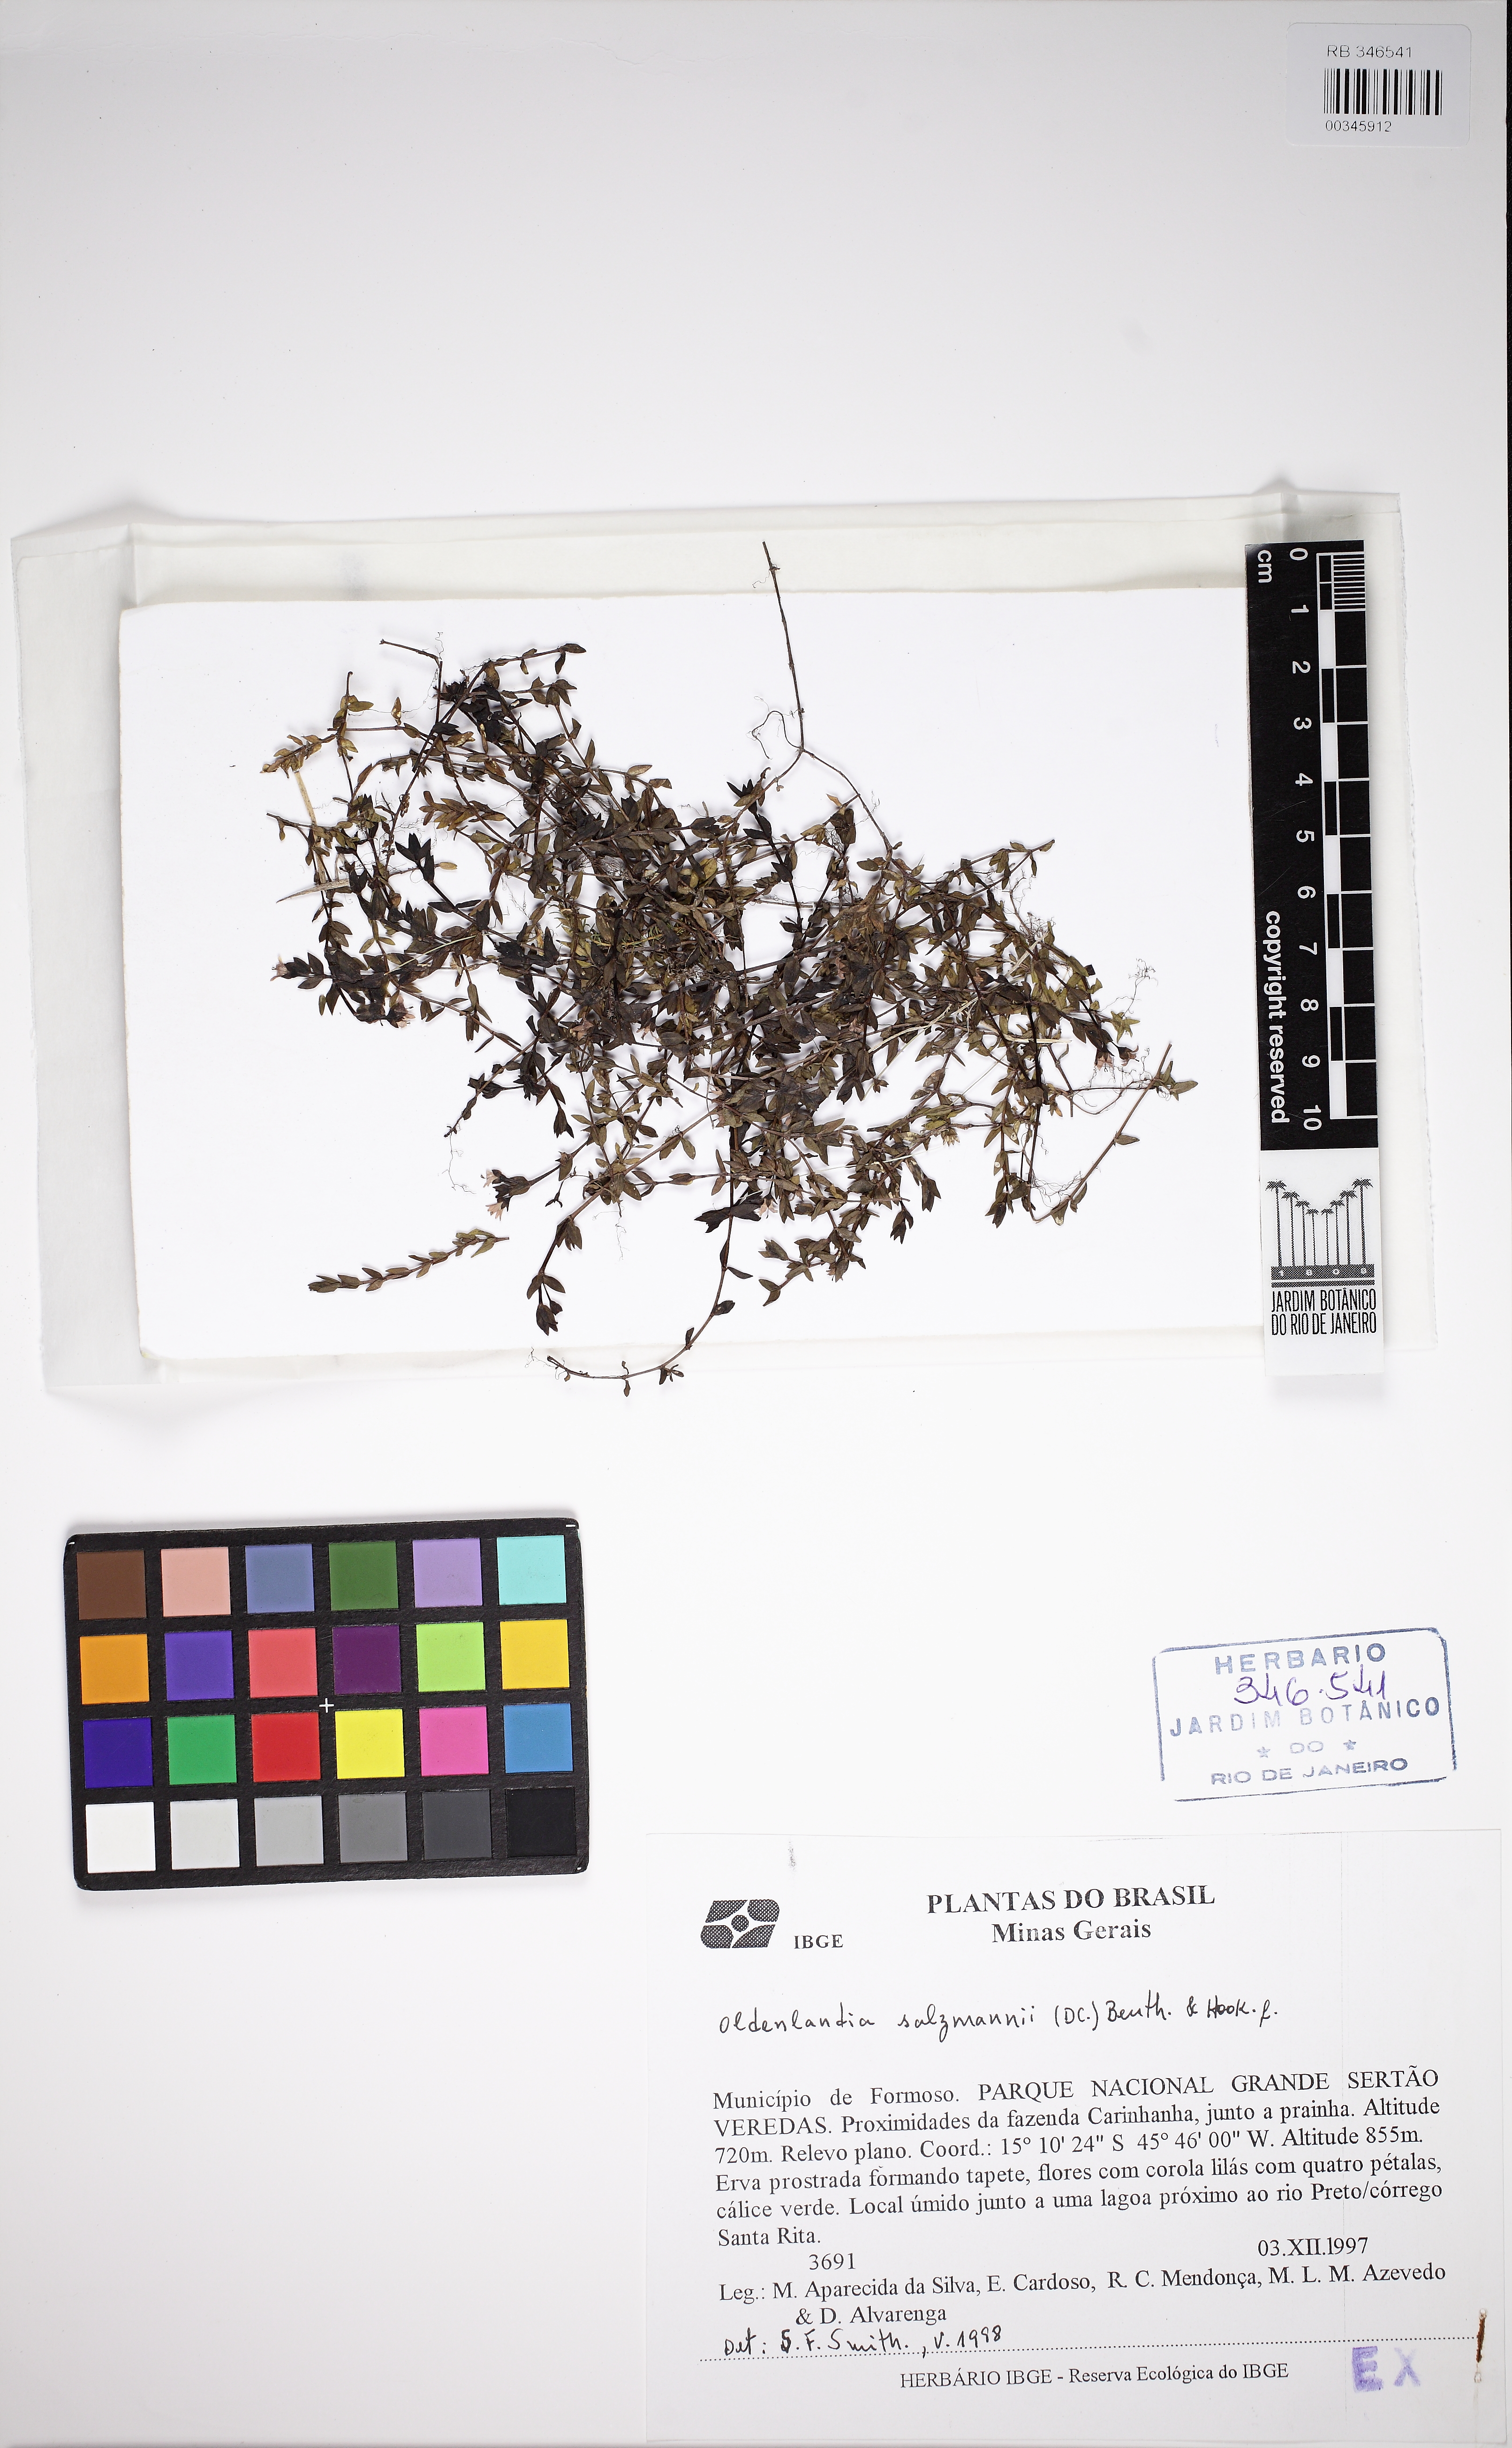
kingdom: Plantae
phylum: Tracheophyta
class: Magnoliopsida
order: Gentianales
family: Rubiaceae
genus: Oldenlandia
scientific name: Oldenlandia salzmannii
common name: Salzmann's mille graines
